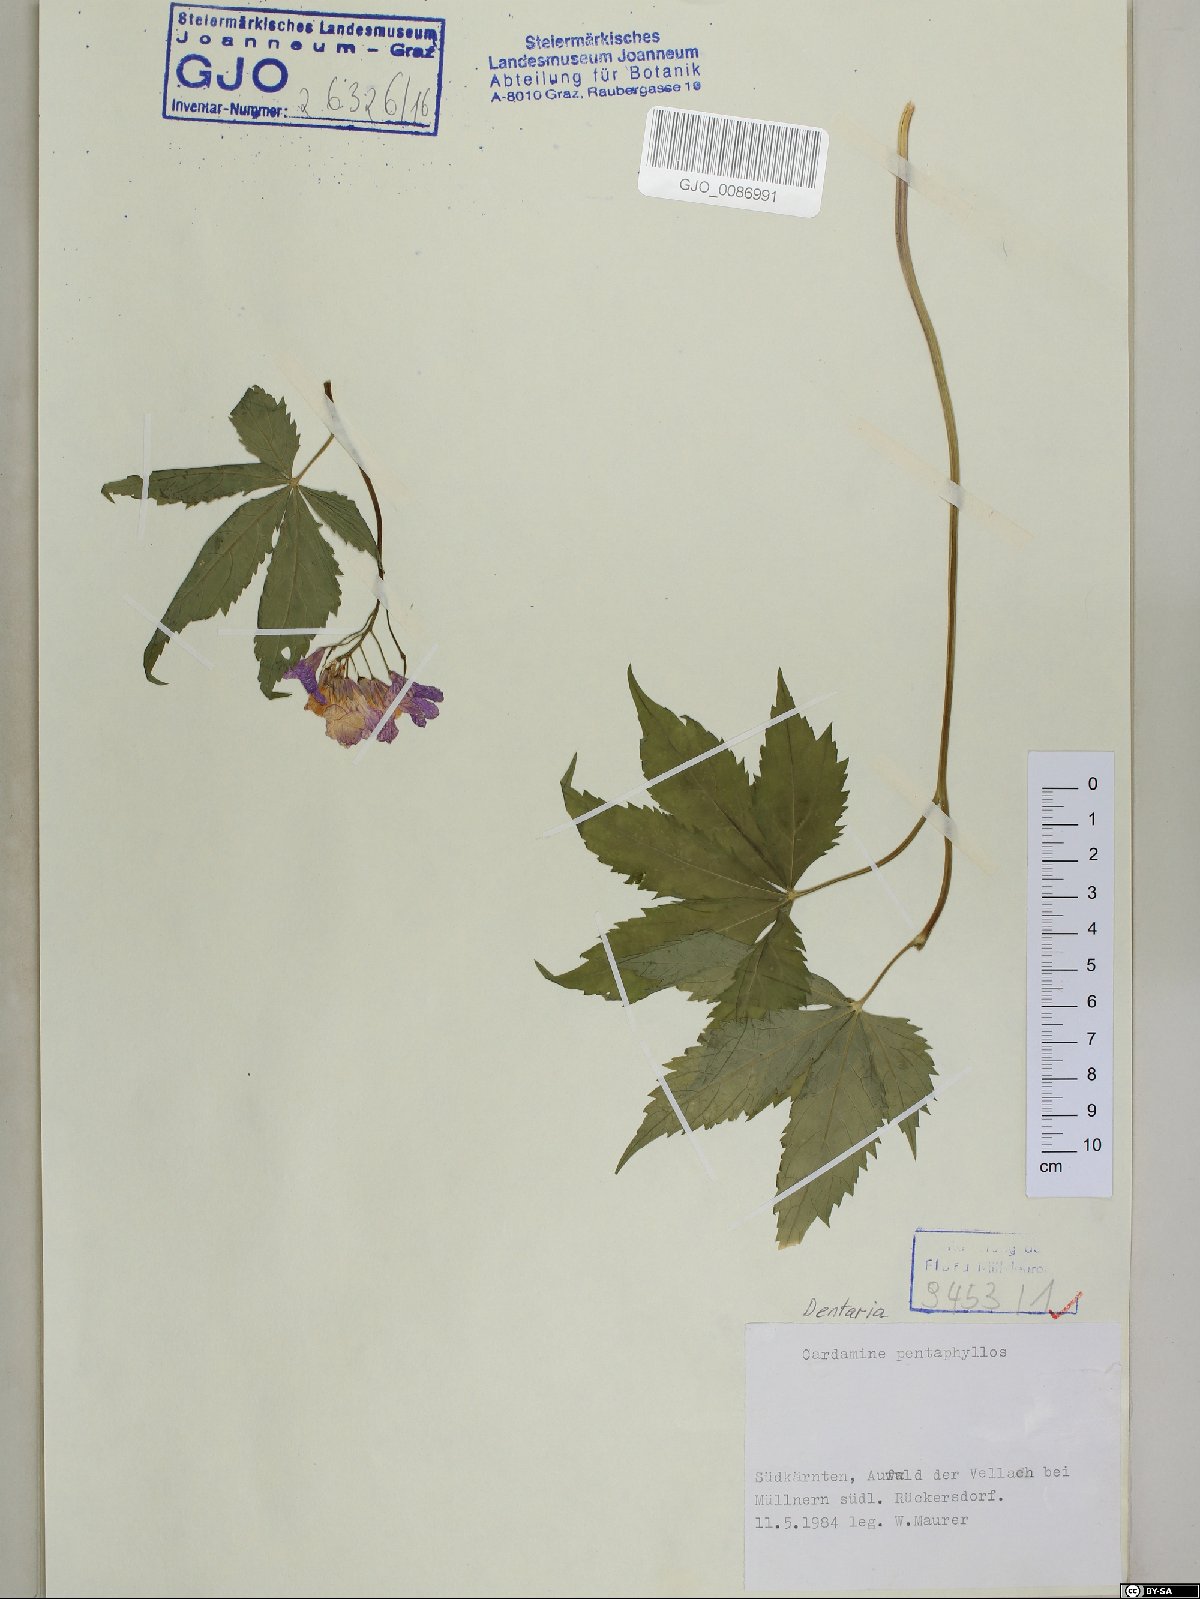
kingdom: Plantae
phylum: Tracheophyta
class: Magnoliopsida
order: Brassicales
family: Brassicaceae
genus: Cardamine
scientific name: Cardamine pentaphyllos
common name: Five-leaflet bitter-cress
